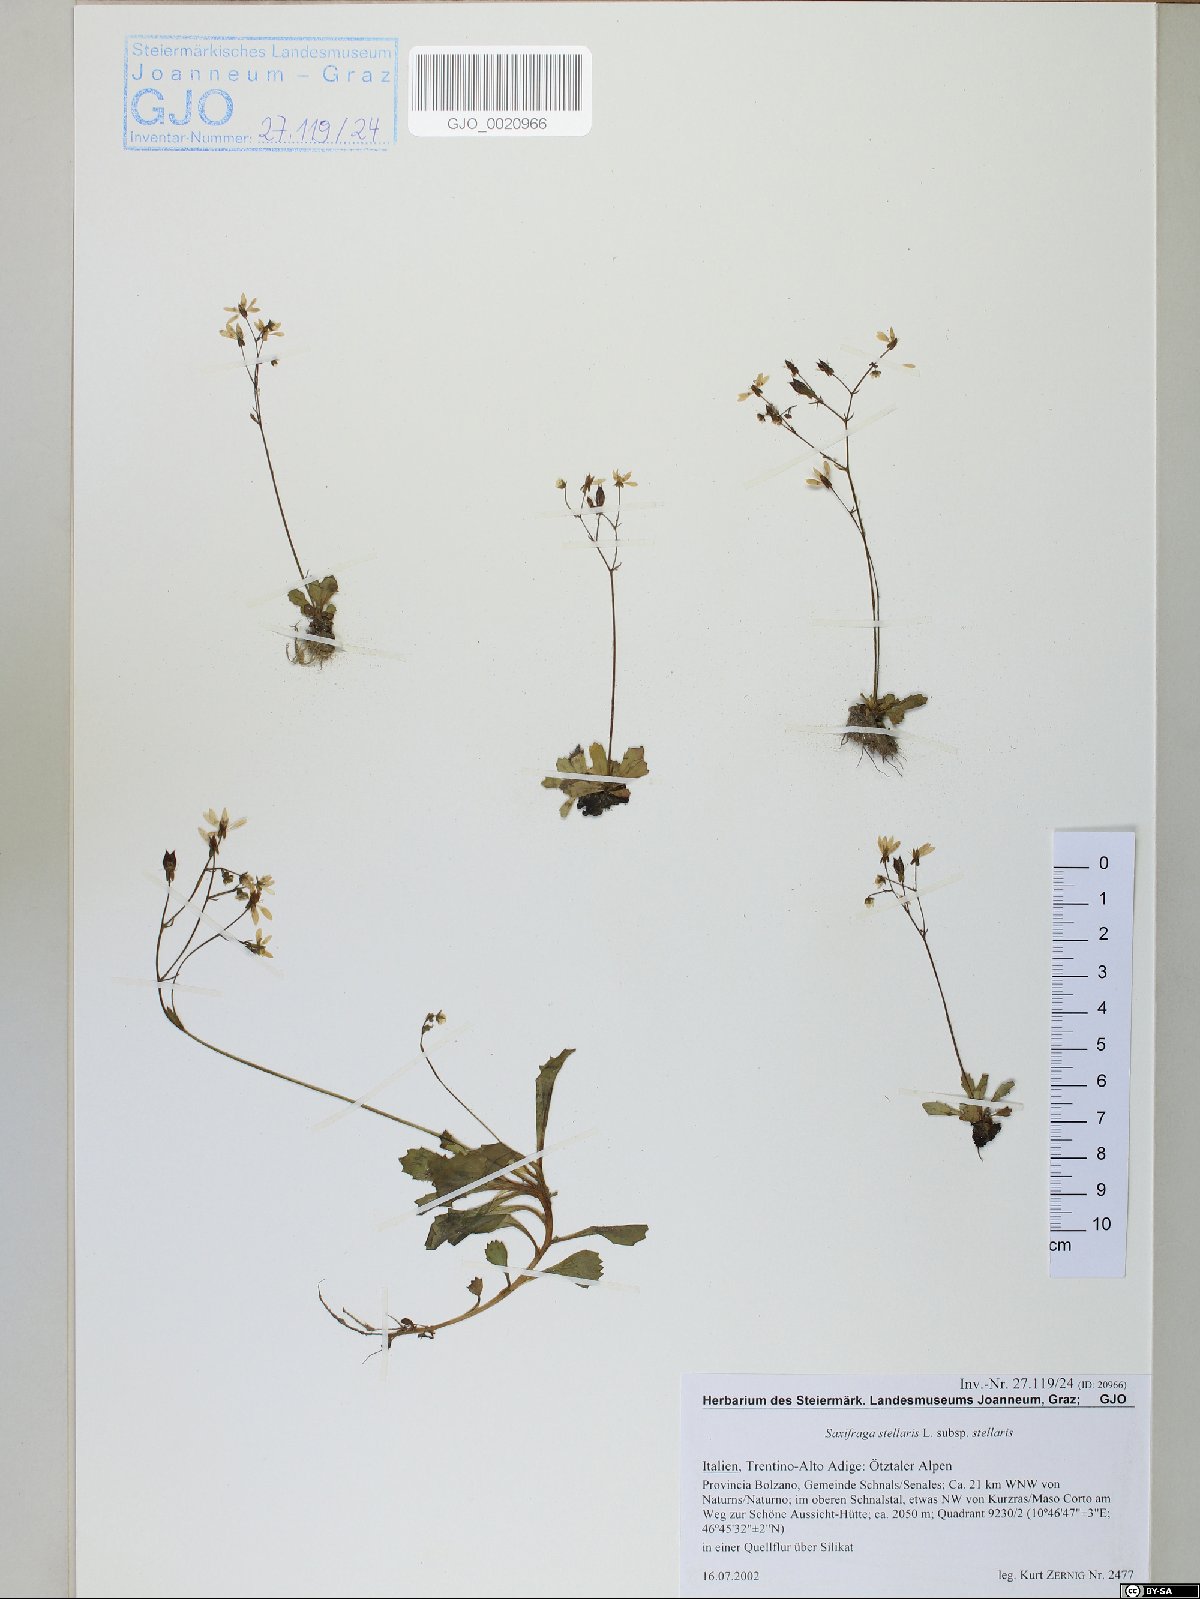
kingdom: Plantae
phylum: Tracheophyta
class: Magnoliopsida
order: Saxifragales
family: Saxifragaceae
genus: Micranthes
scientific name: Micranthes stellaris
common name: Starry saxifrage
